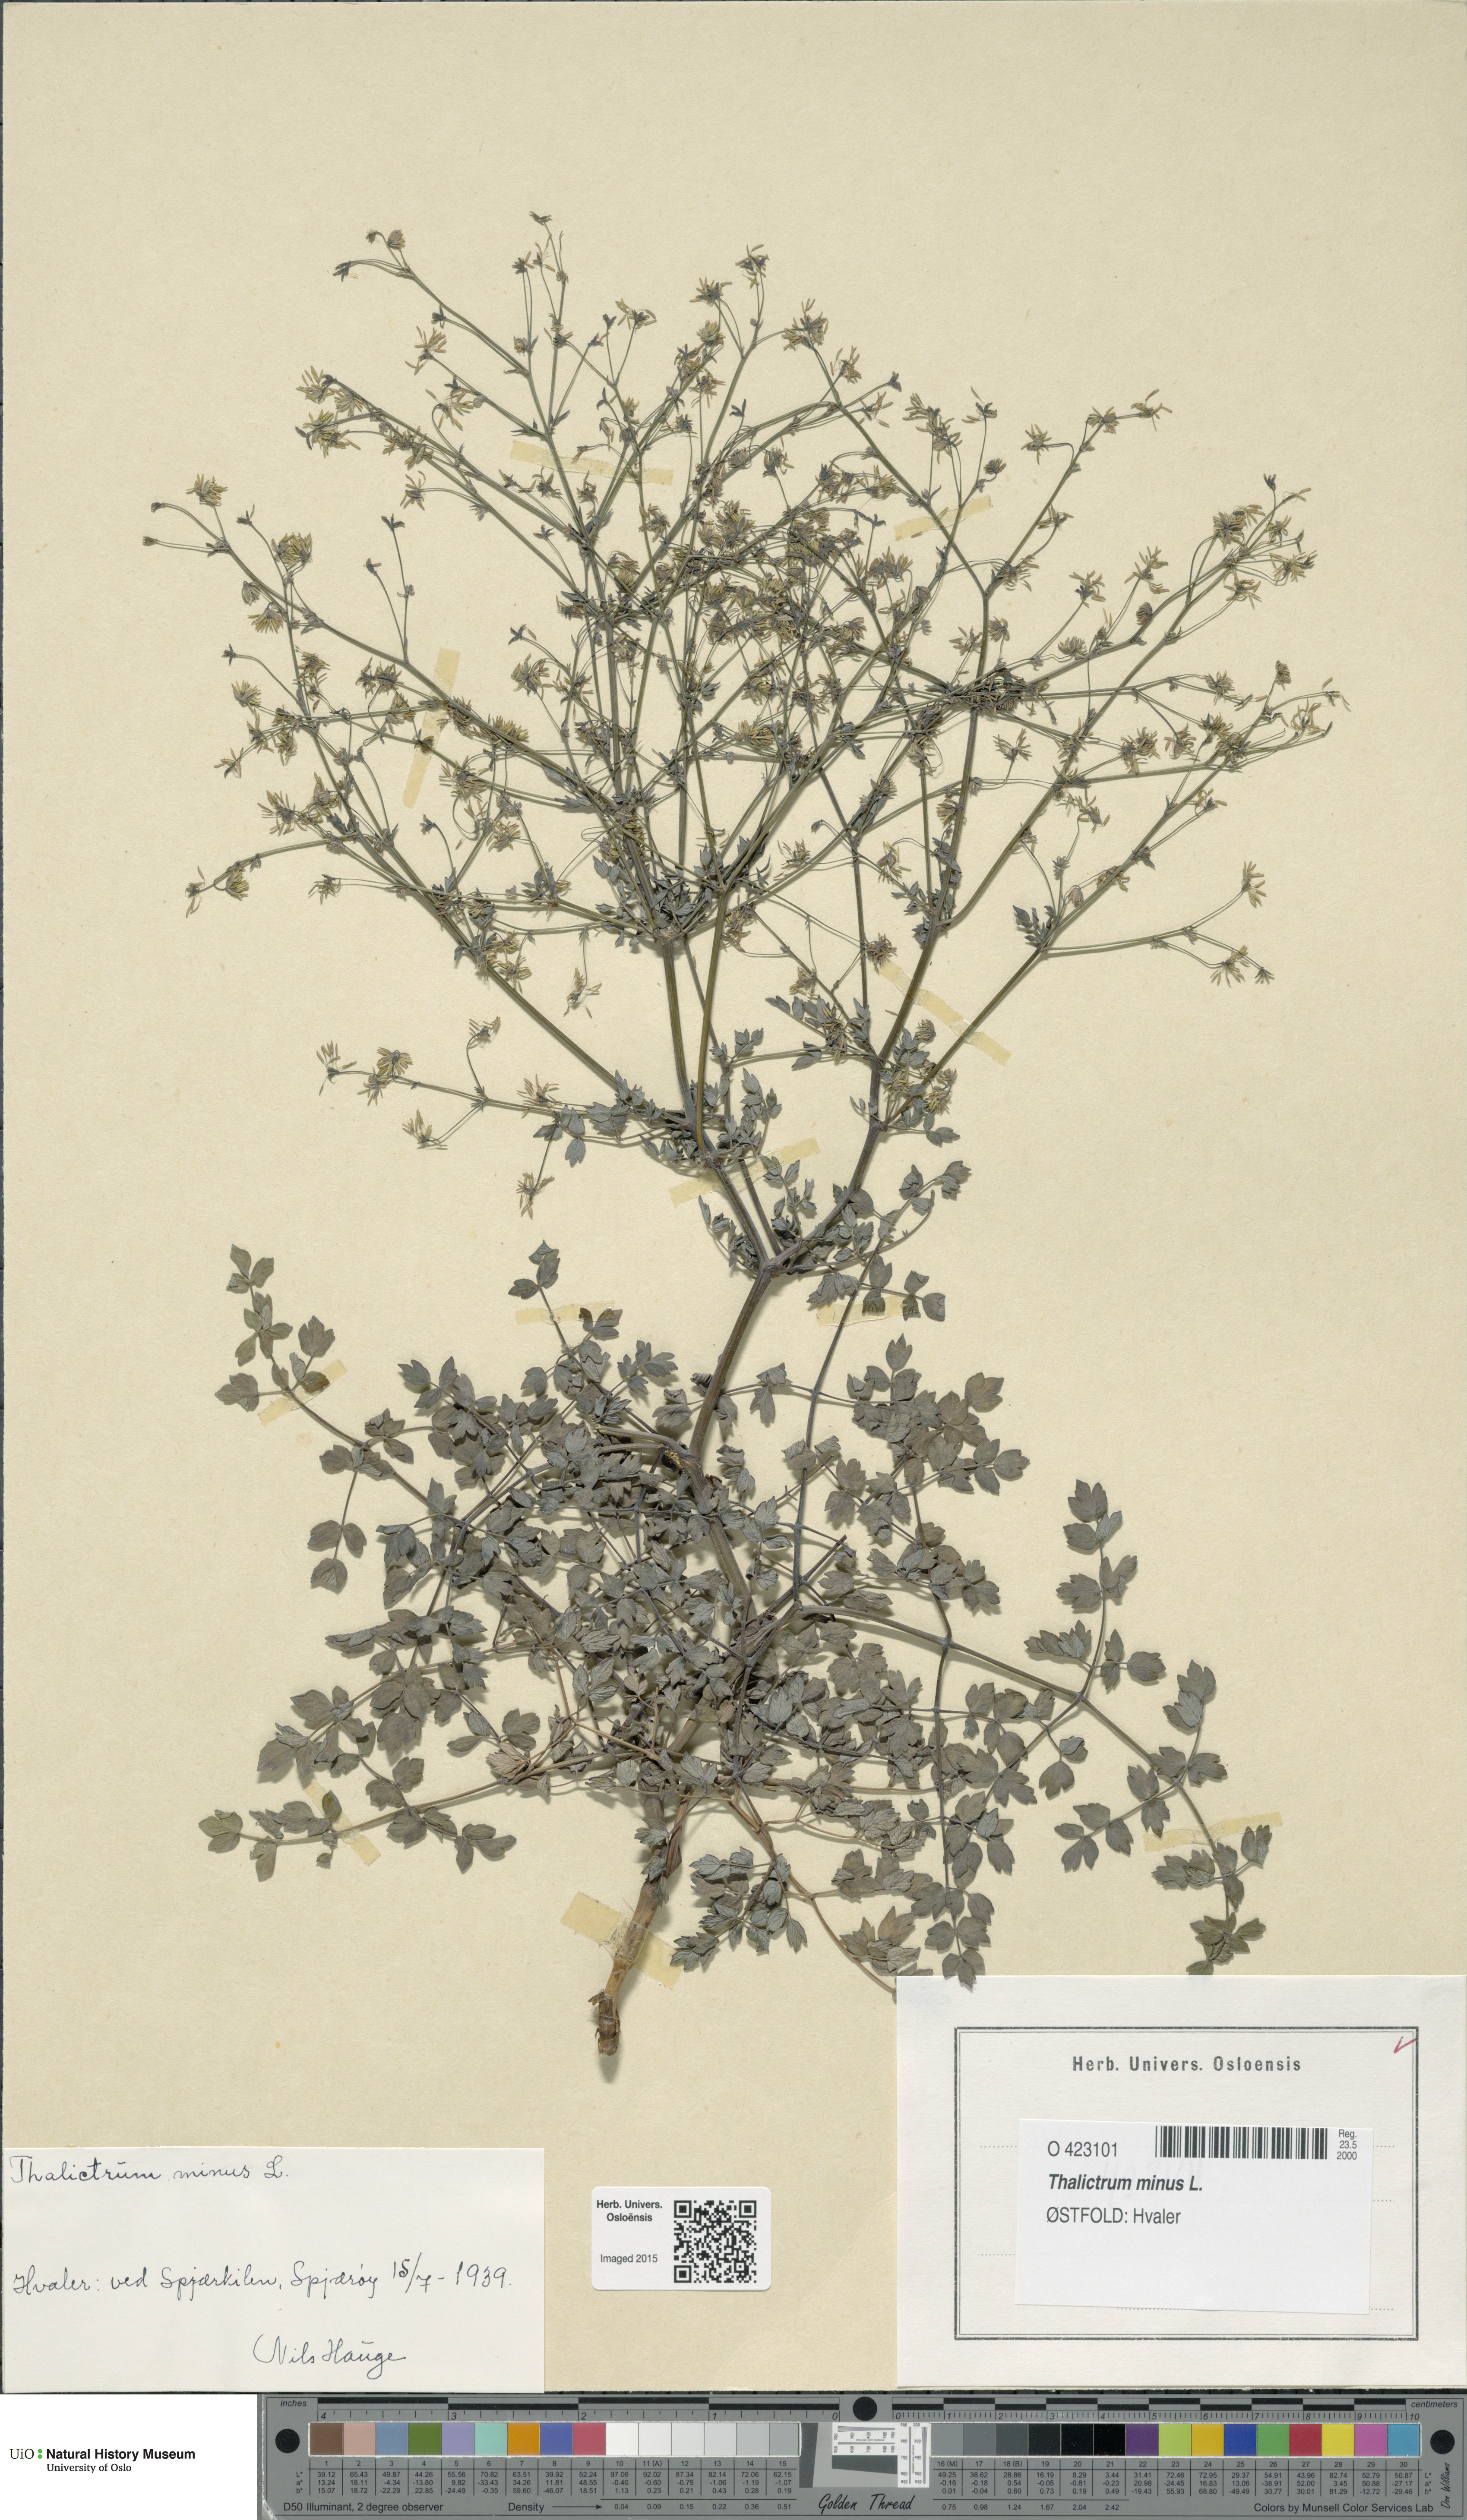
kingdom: Plantae
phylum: Tracheophyta
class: Magnoliopsida
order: Ranunculales
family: Ranunculaceae
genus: Thalictrum
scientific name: Thalictrum minus
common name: Lesser meadow-rue
